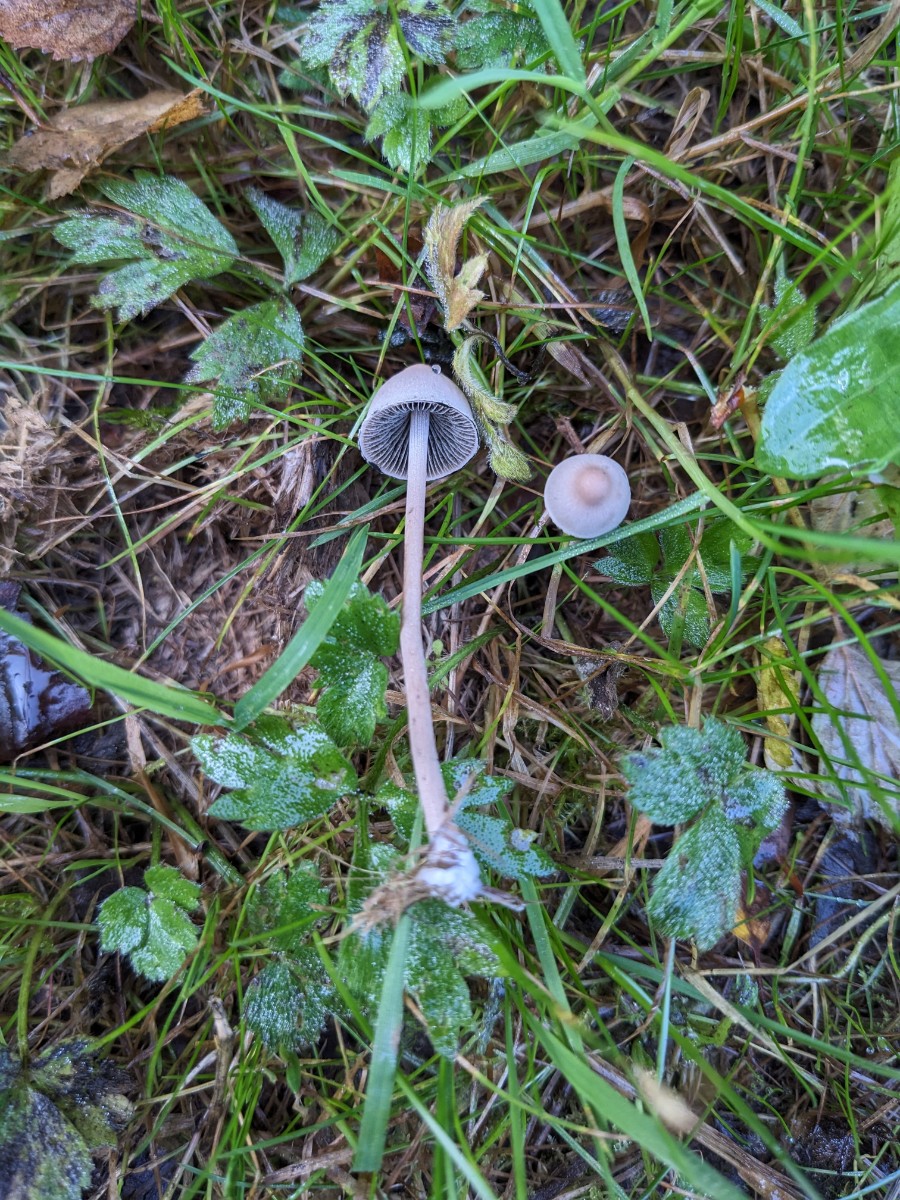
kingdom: Fungi
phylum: Basidiomycota
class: Agaricomycetes
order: Agaricales
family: Bolbitiaceae
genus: Panaeolus
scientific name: Panaeolus olivaceus
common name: lysstokket glanshat
